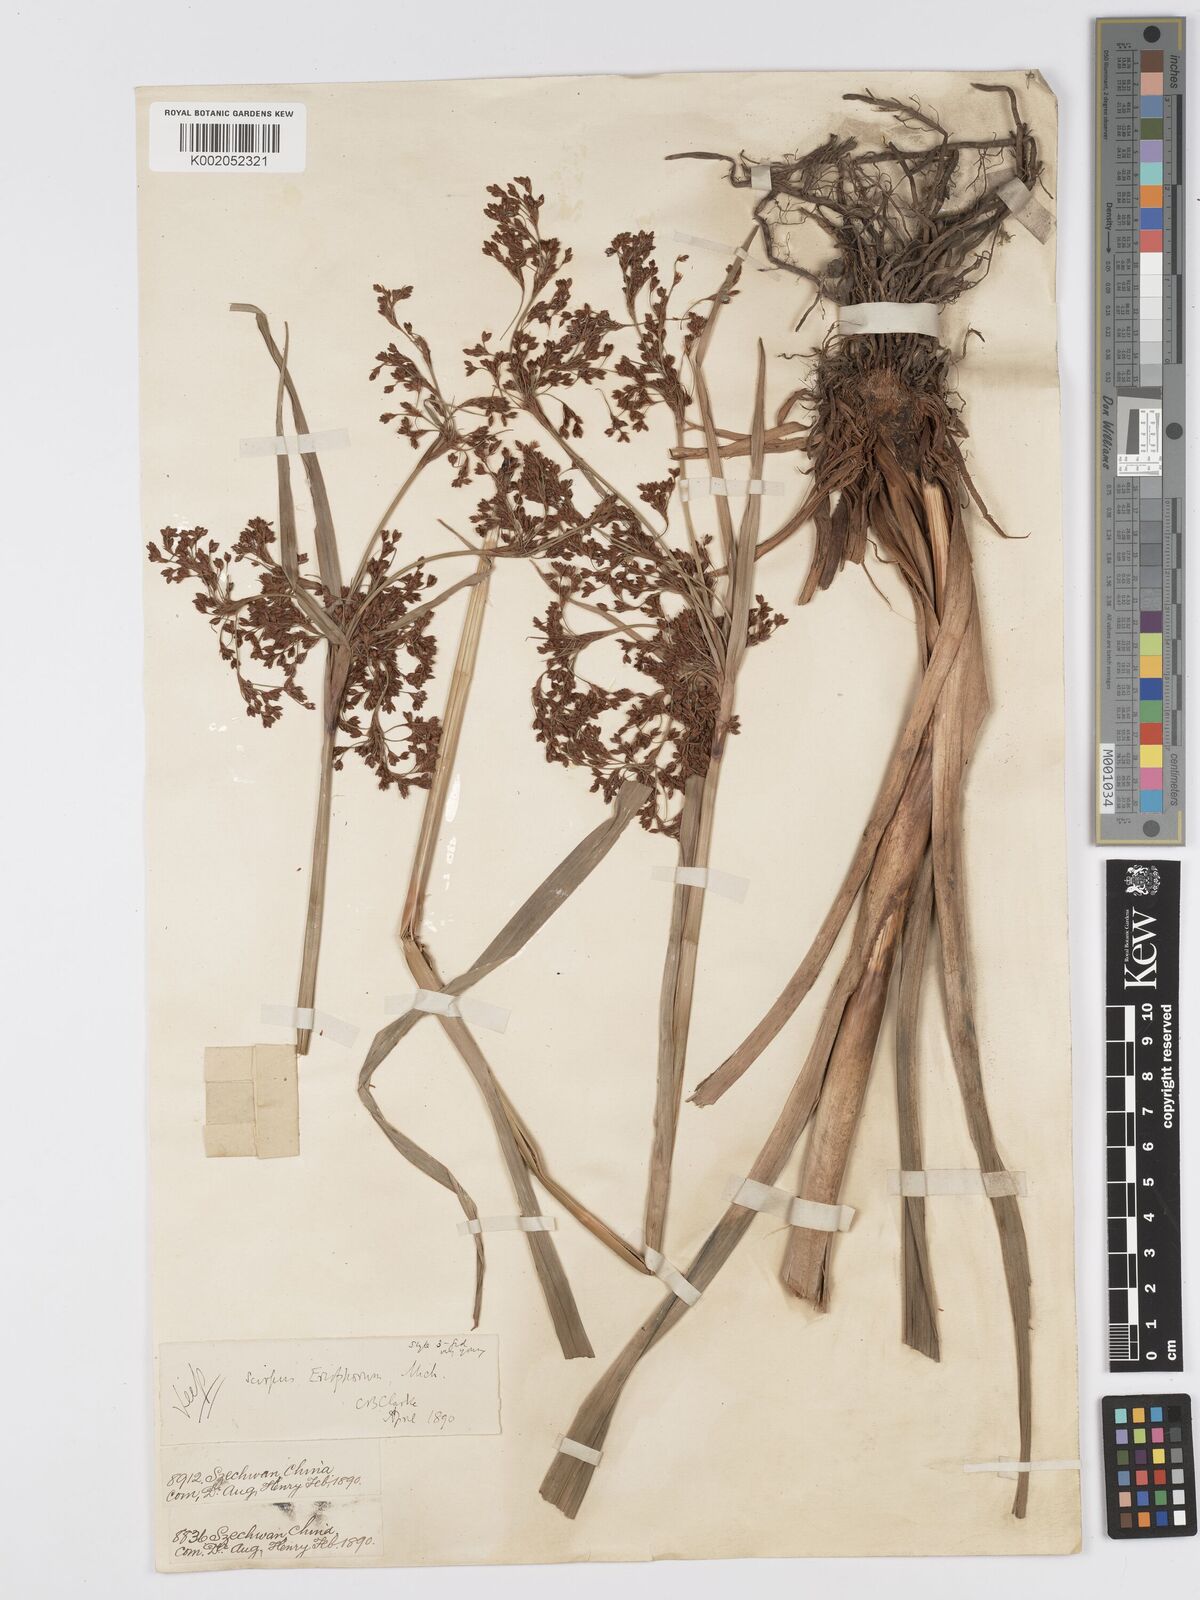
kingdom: Plantae
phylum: Tracheophyta
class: Liliopsida
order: Poales
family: Cyperaceae
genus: Scirpus
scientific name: Scirpus cyperinus
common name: Black-sheathed bulrush
